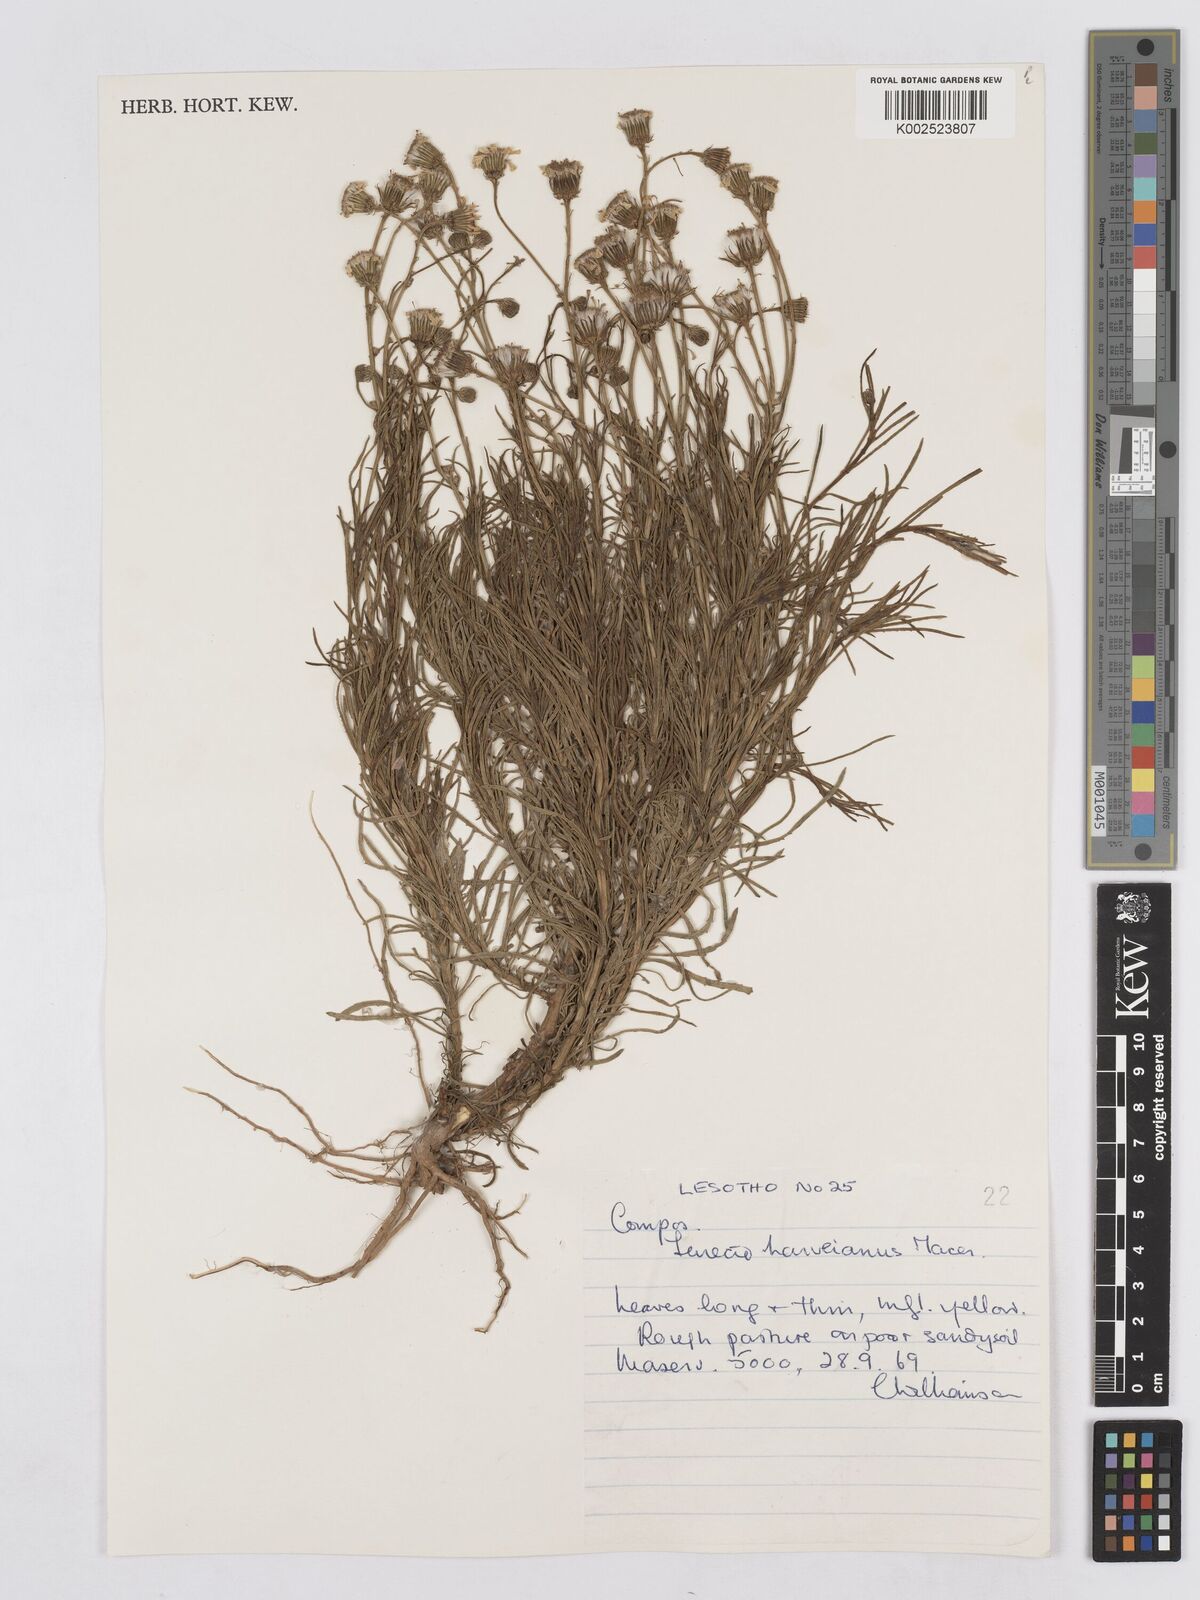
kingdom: Plantae
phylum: Tracheophyta
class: Magnoliopsida
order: Asterales
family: Asteraceae
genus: Senecio
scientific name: Senecio harveyanus
